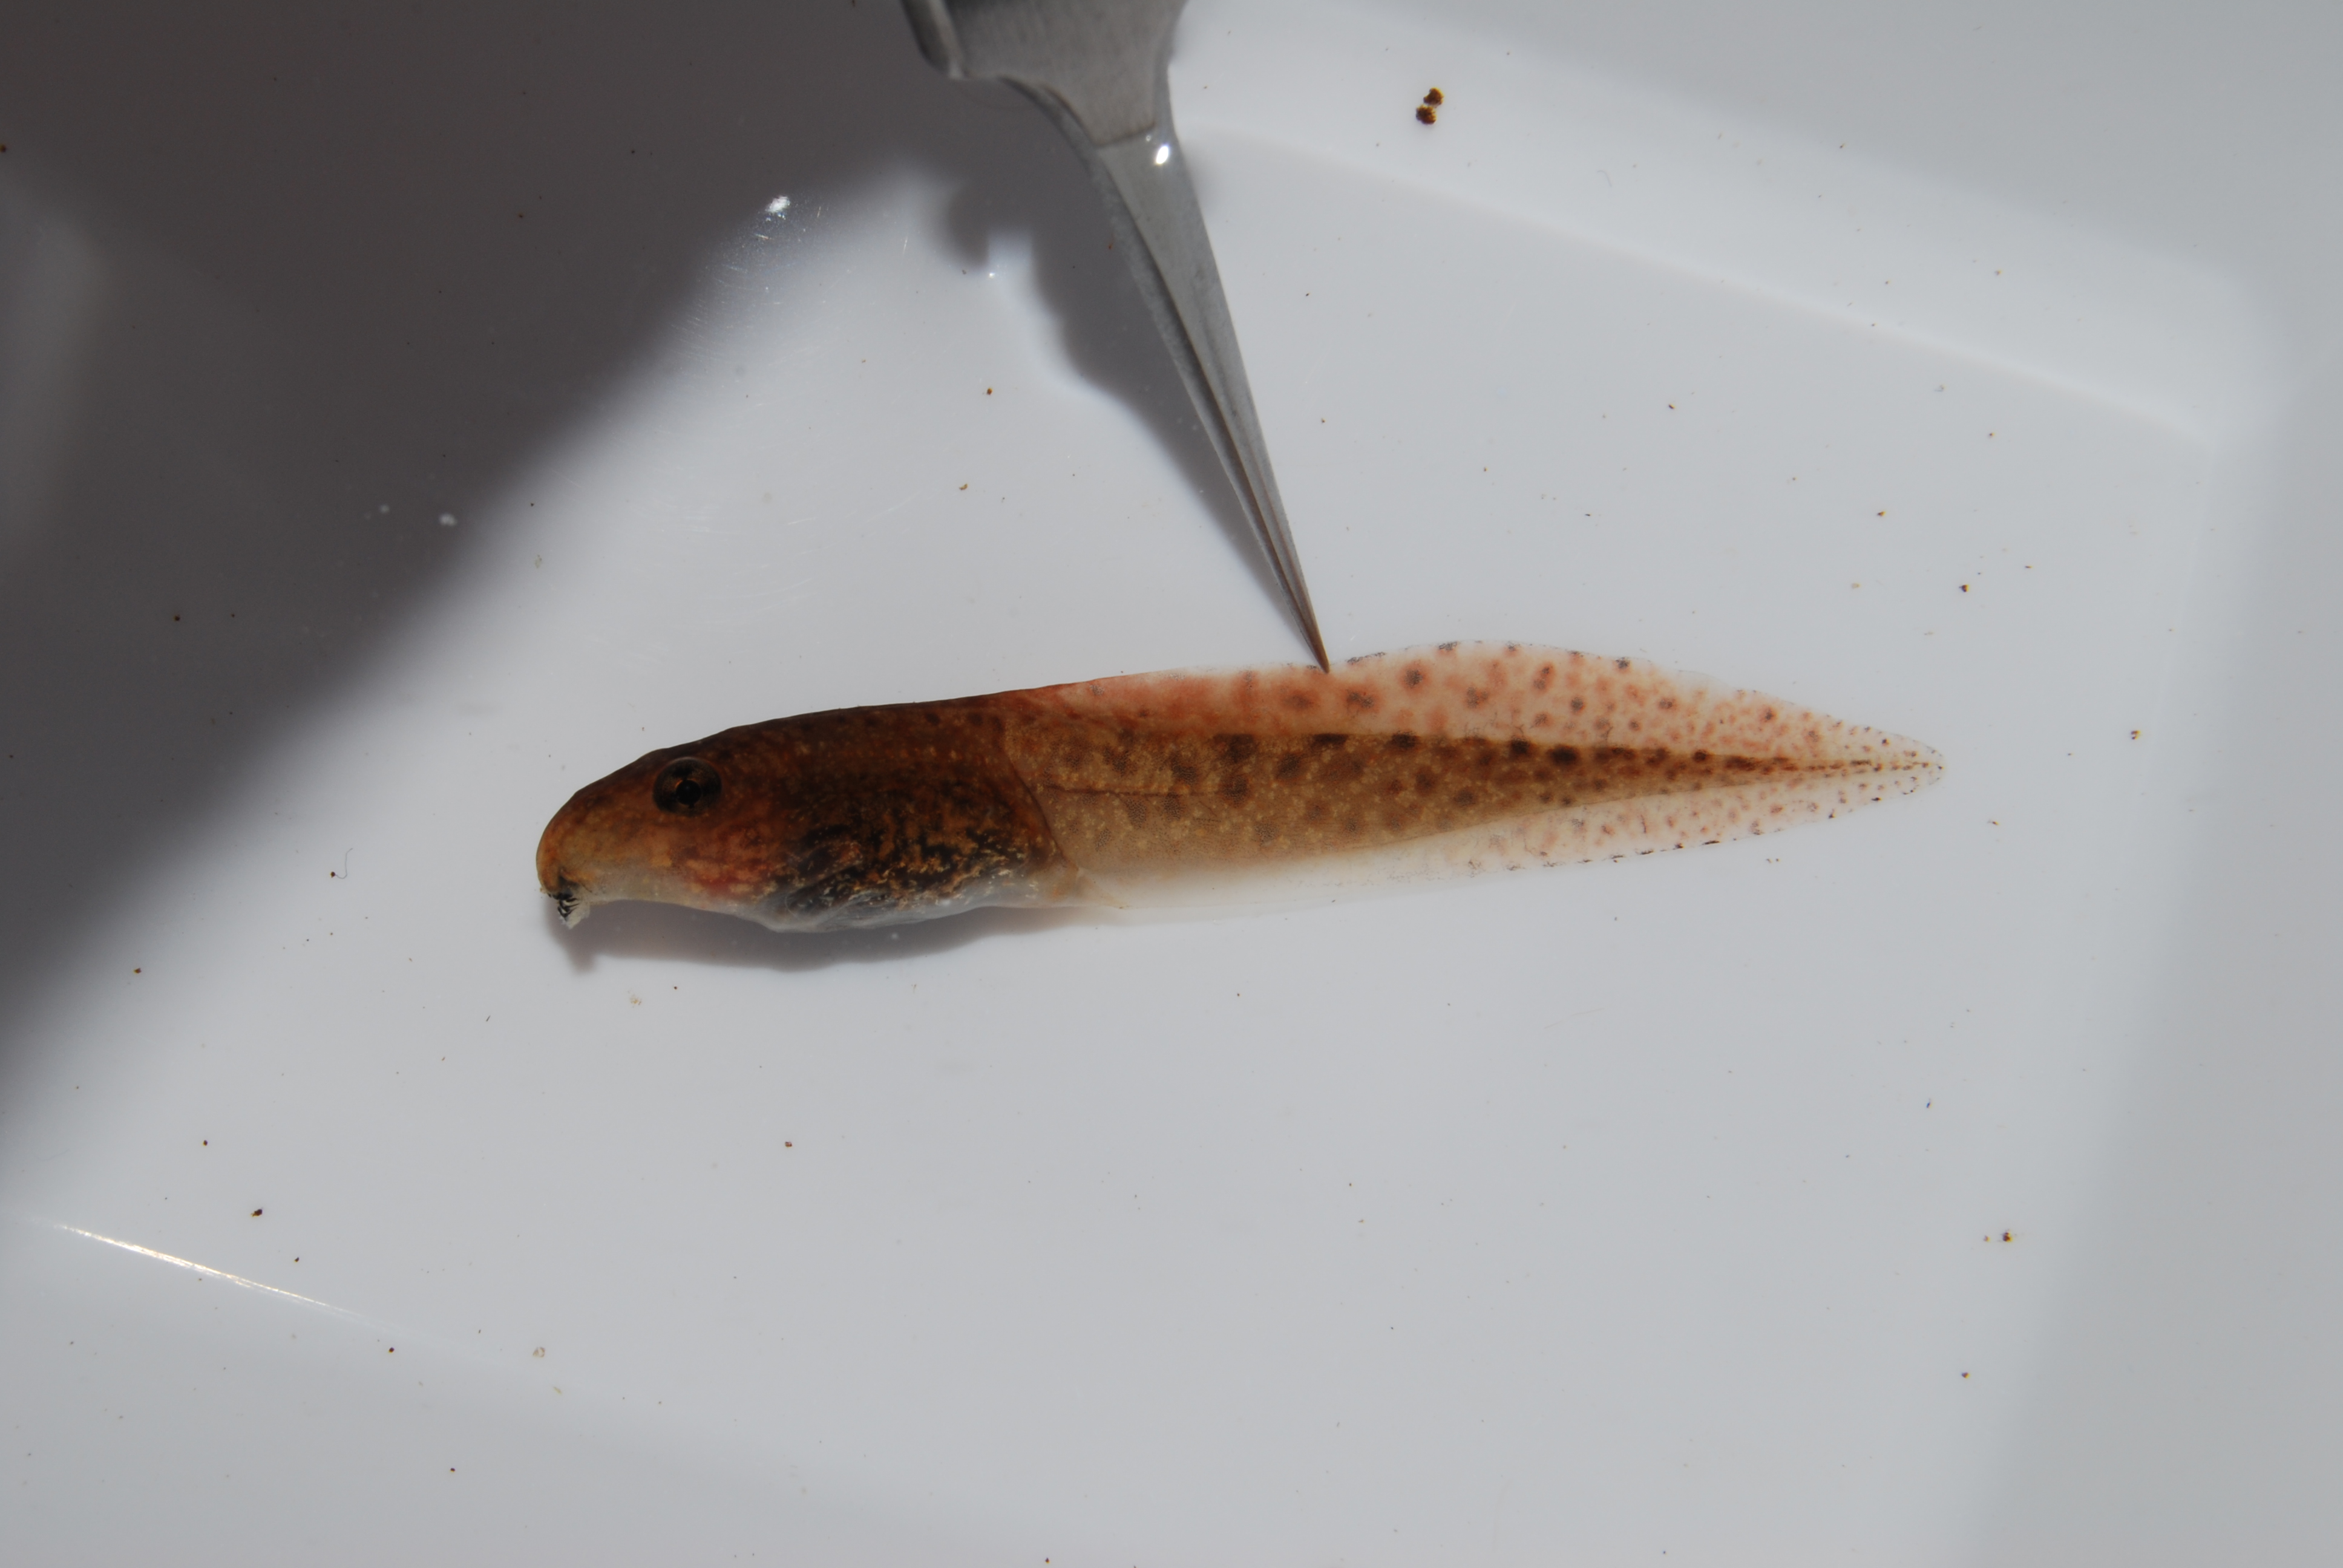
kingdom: Animalia
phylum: Chordata
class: Amphibia
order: Anura
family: Pyxicephalidae
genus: Amietia
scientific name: Amietia fuscigula
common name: Cape rana
